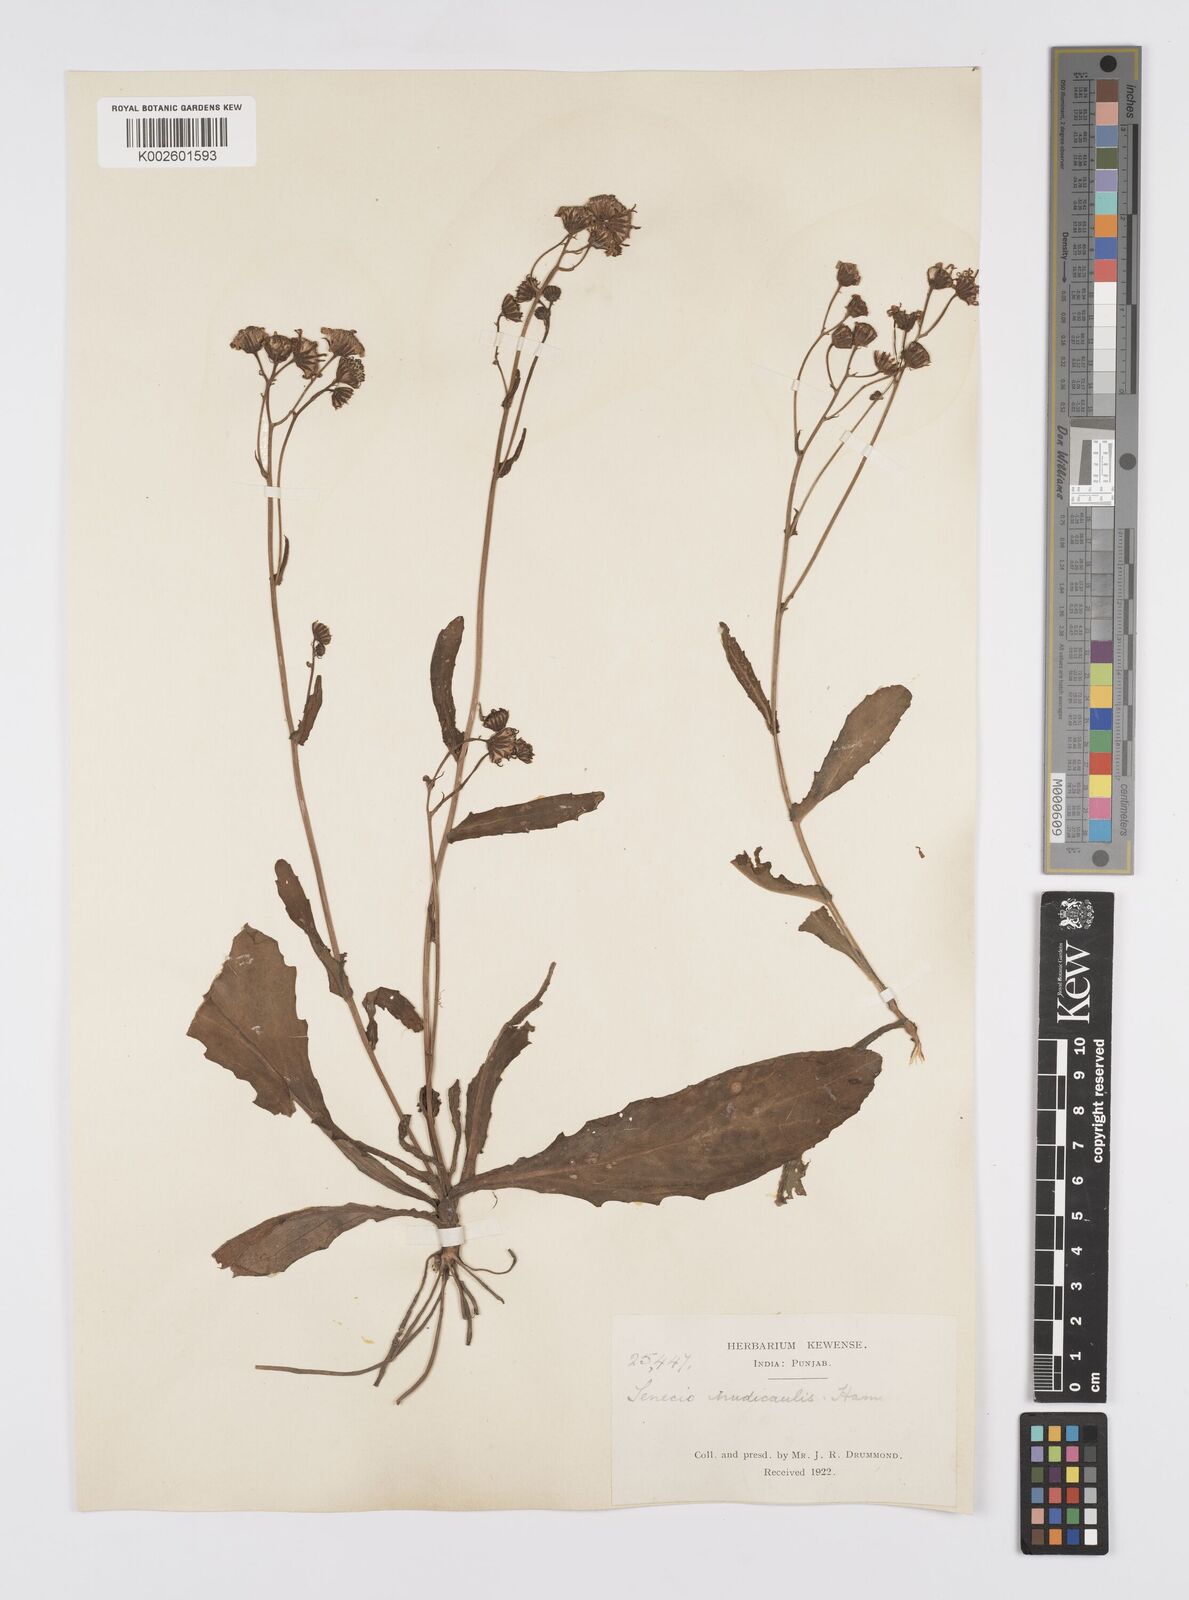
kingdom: Plantae
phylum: Tracheophyta
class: Magnoliopsida
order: Asterales
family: Asteraceae
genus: Senecio
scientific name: Senecio
